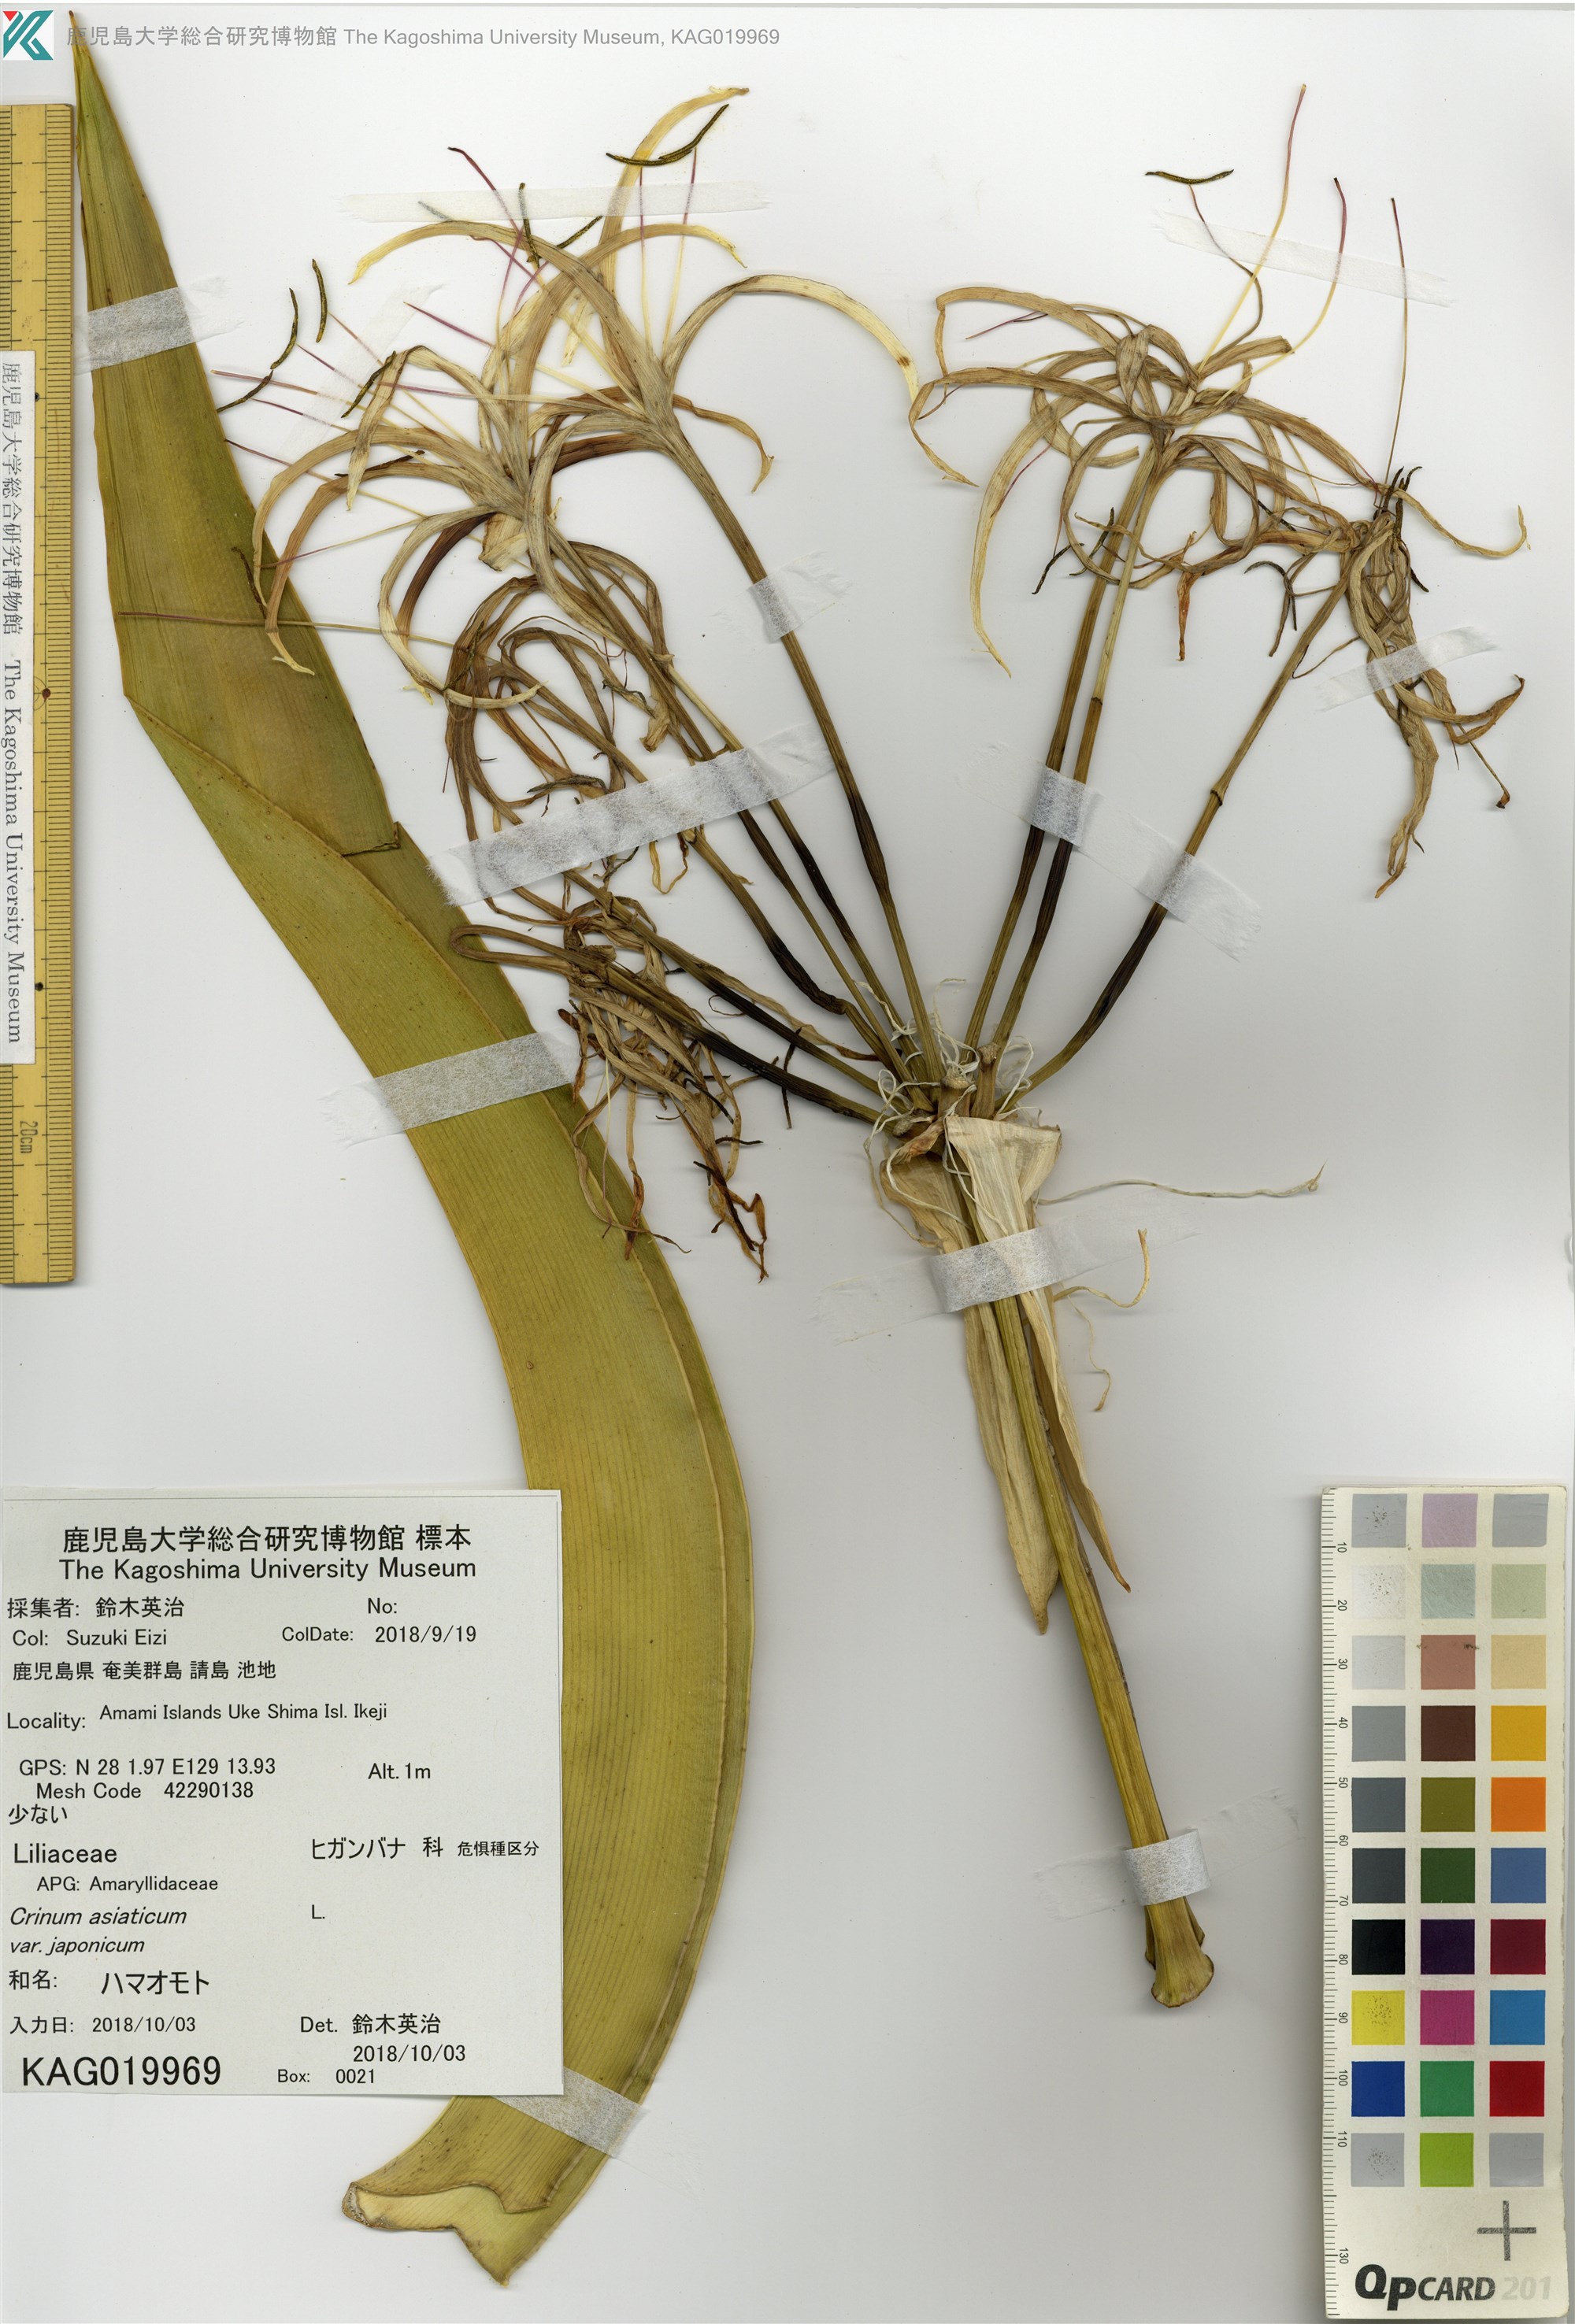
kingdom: Plantae
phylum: Tracheophyta
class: Liliopsida
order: Asparagales
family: Amaryllidaceae
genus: Crinum
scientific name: Crinum asiaticum
